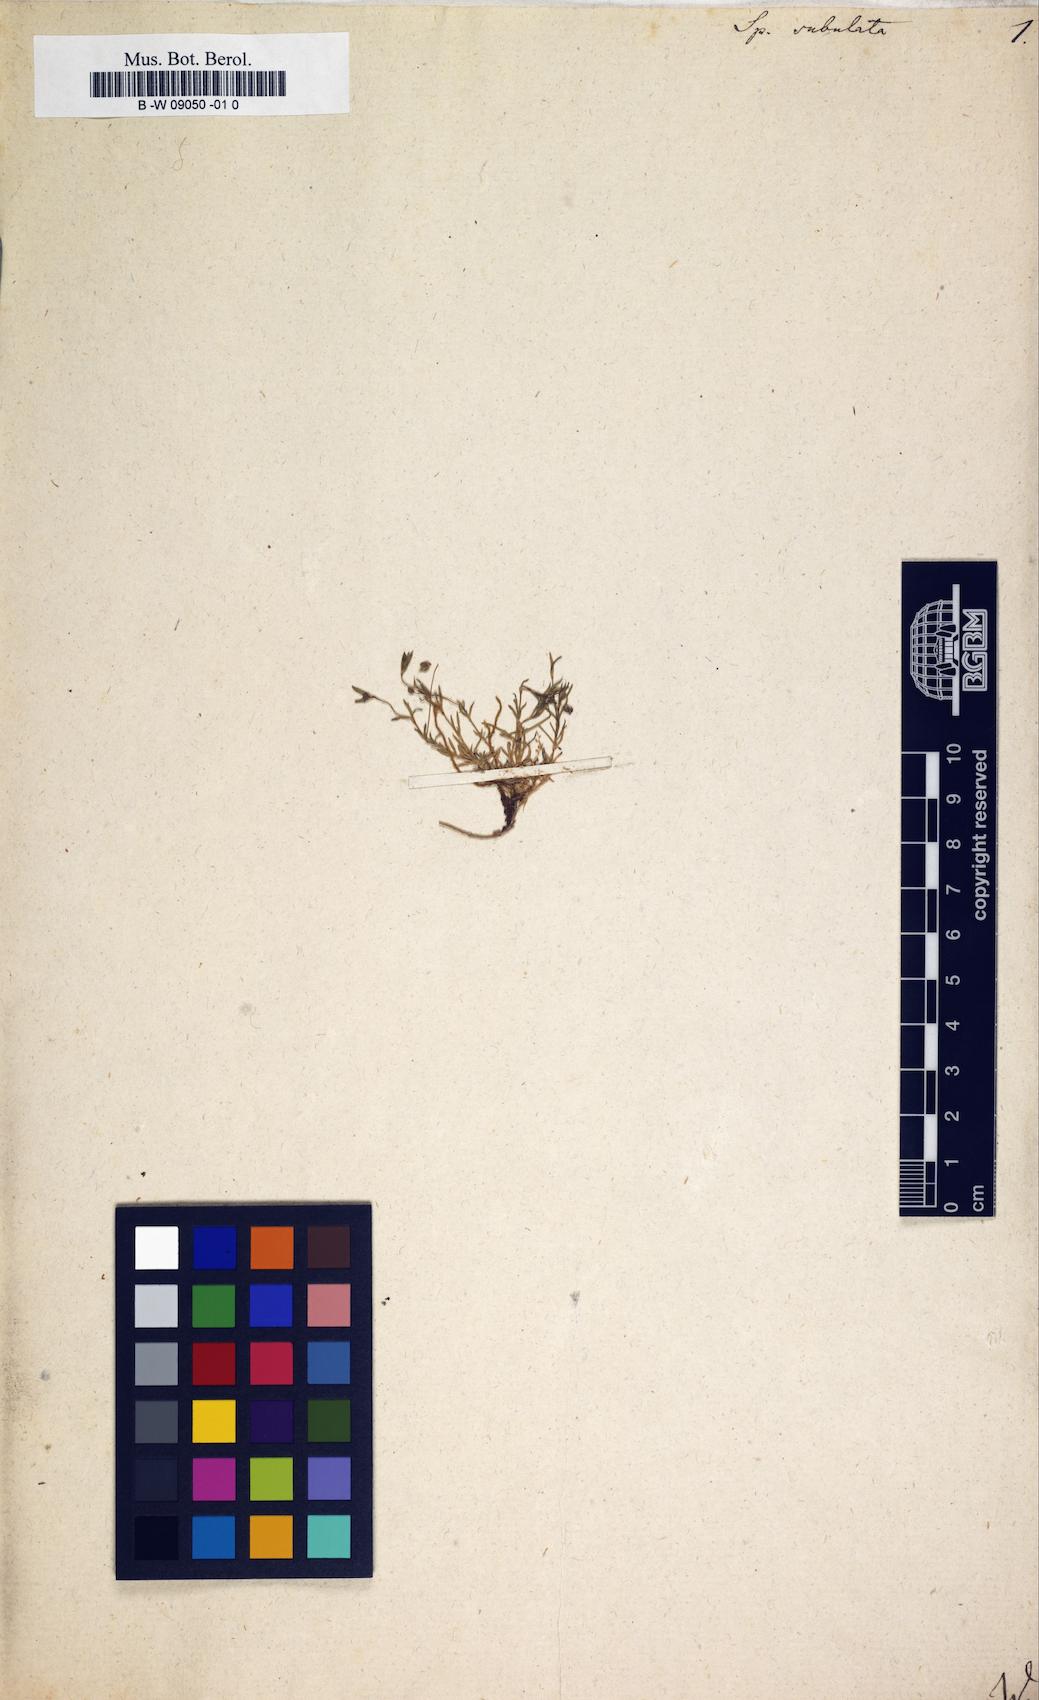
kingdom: Plantae
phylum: Tracheophyta
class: Magnoliopsida
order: Caryophyllales
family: Caryophyllaceae
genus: Sagina
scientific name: Sagina alexandrae
